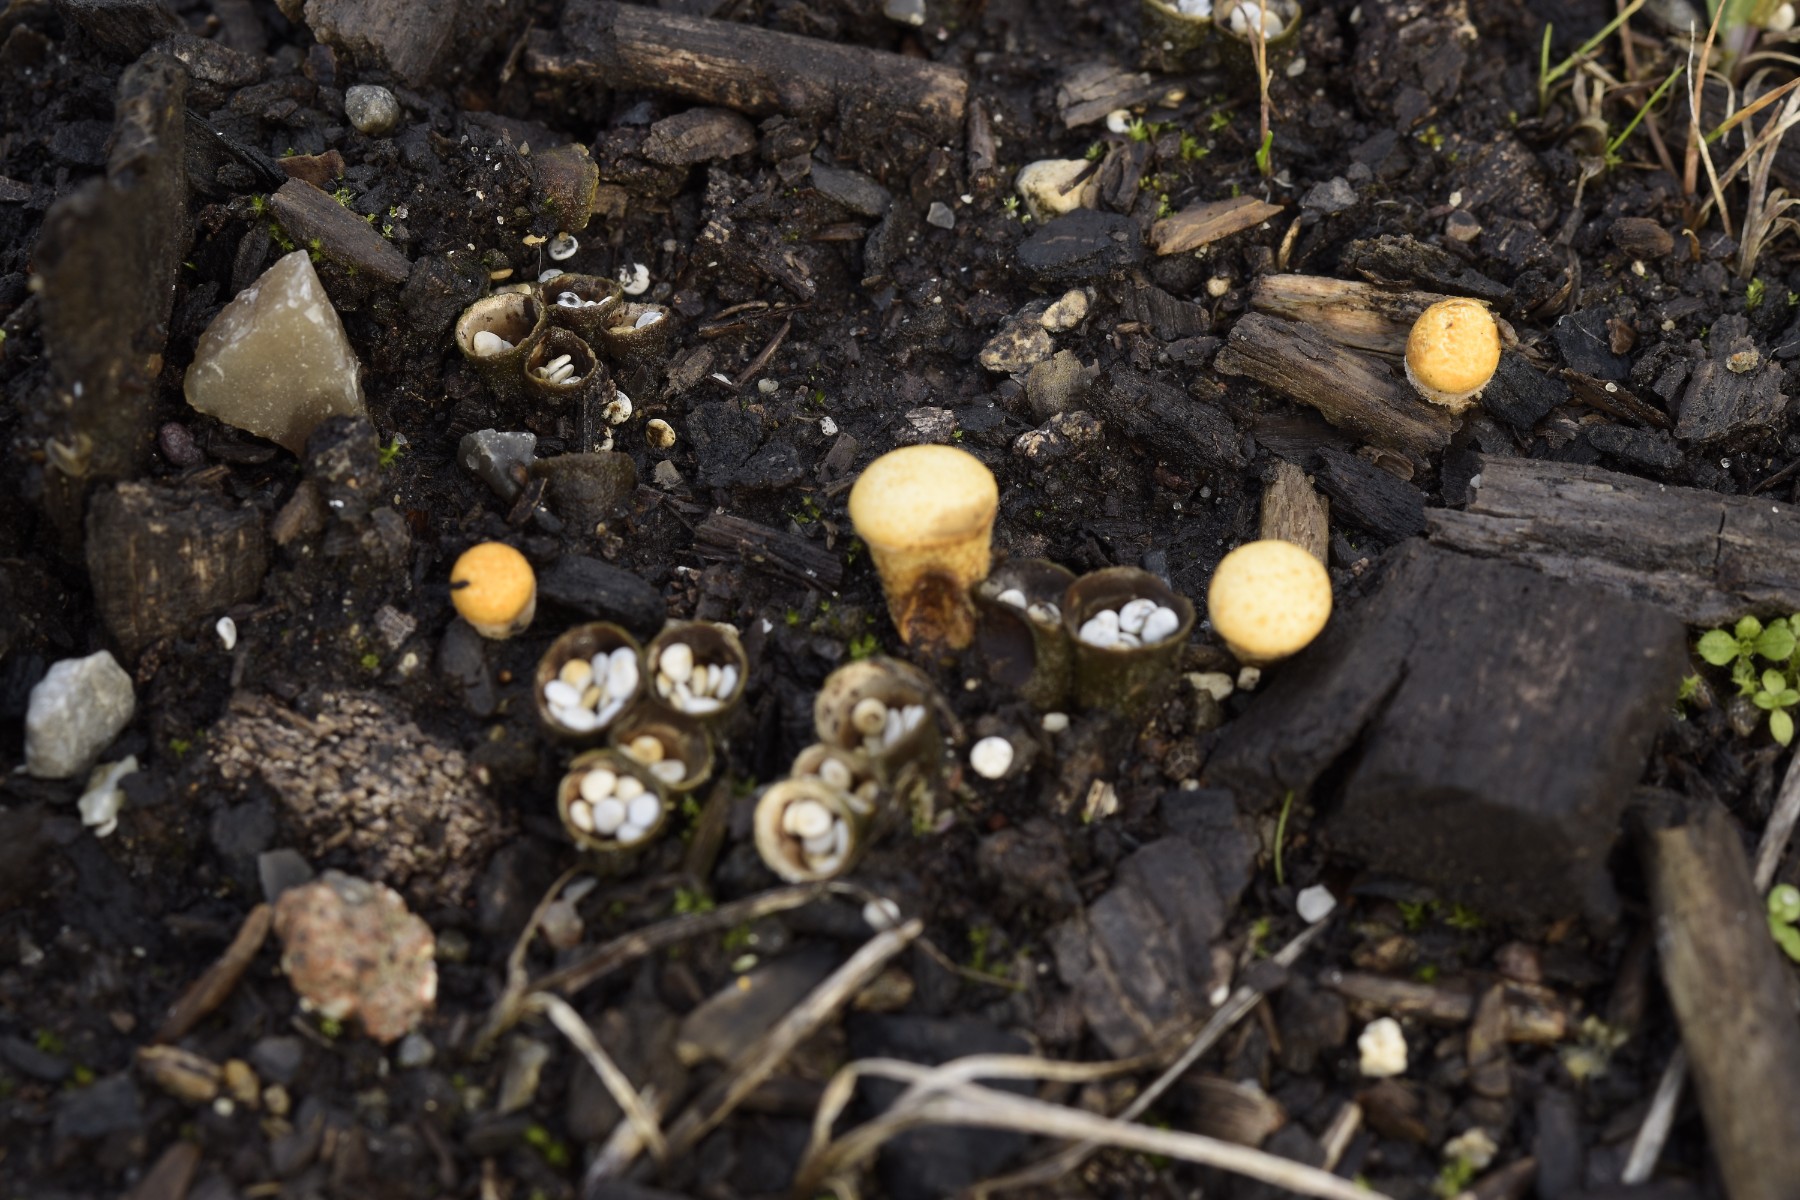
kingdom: Fungi
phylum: Basidiomycota
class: Agaricomycetes
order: Agaricales
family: Nidulariaceae
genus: Crucibulum
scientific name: Crucibulum crucibuliforme
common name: krukkesvamp
